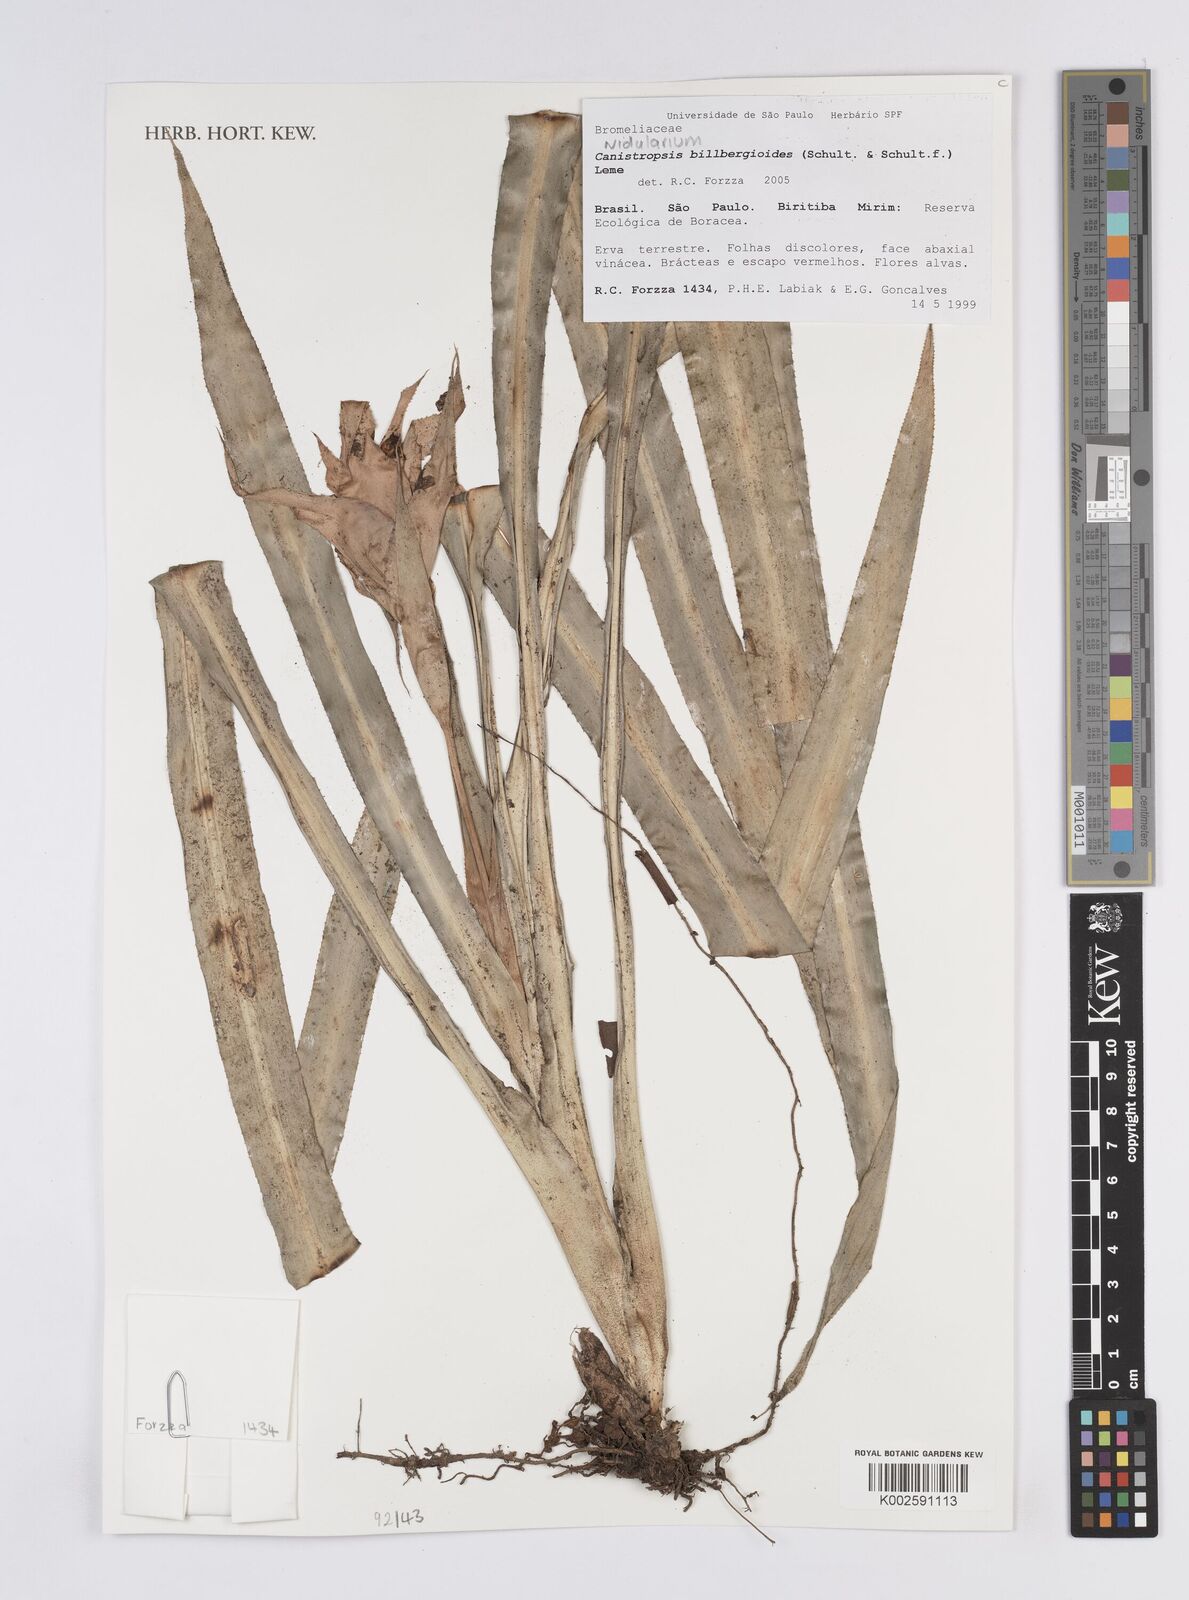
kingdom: Plantae
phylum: Tracheophyta
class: Liliopsida
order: Poales
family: Bromeliaceae
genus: Canistropsis
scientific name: Canistropsis billbergioides
